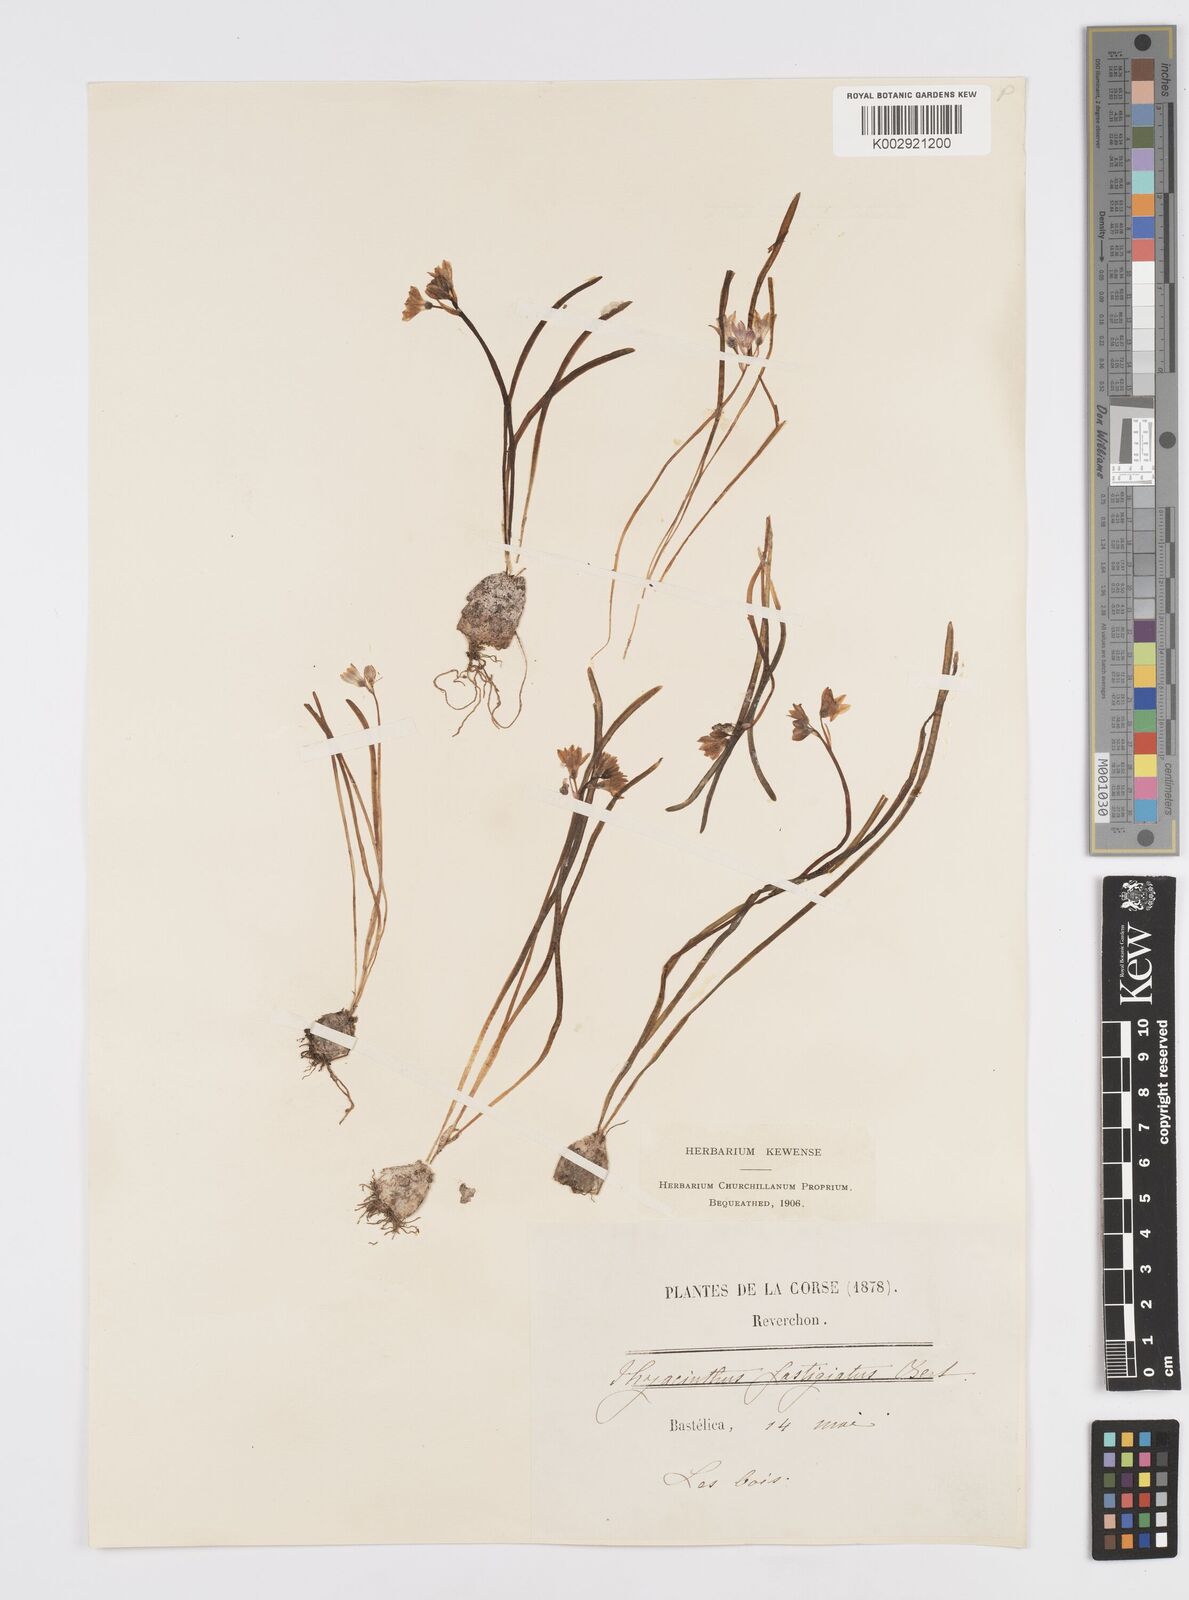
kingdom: Plantae
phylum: Tracheophyta
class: Liliopsida
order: Asparagales
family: Asparagaceae
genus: Brimeura
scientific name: Brimeura fastigiata
